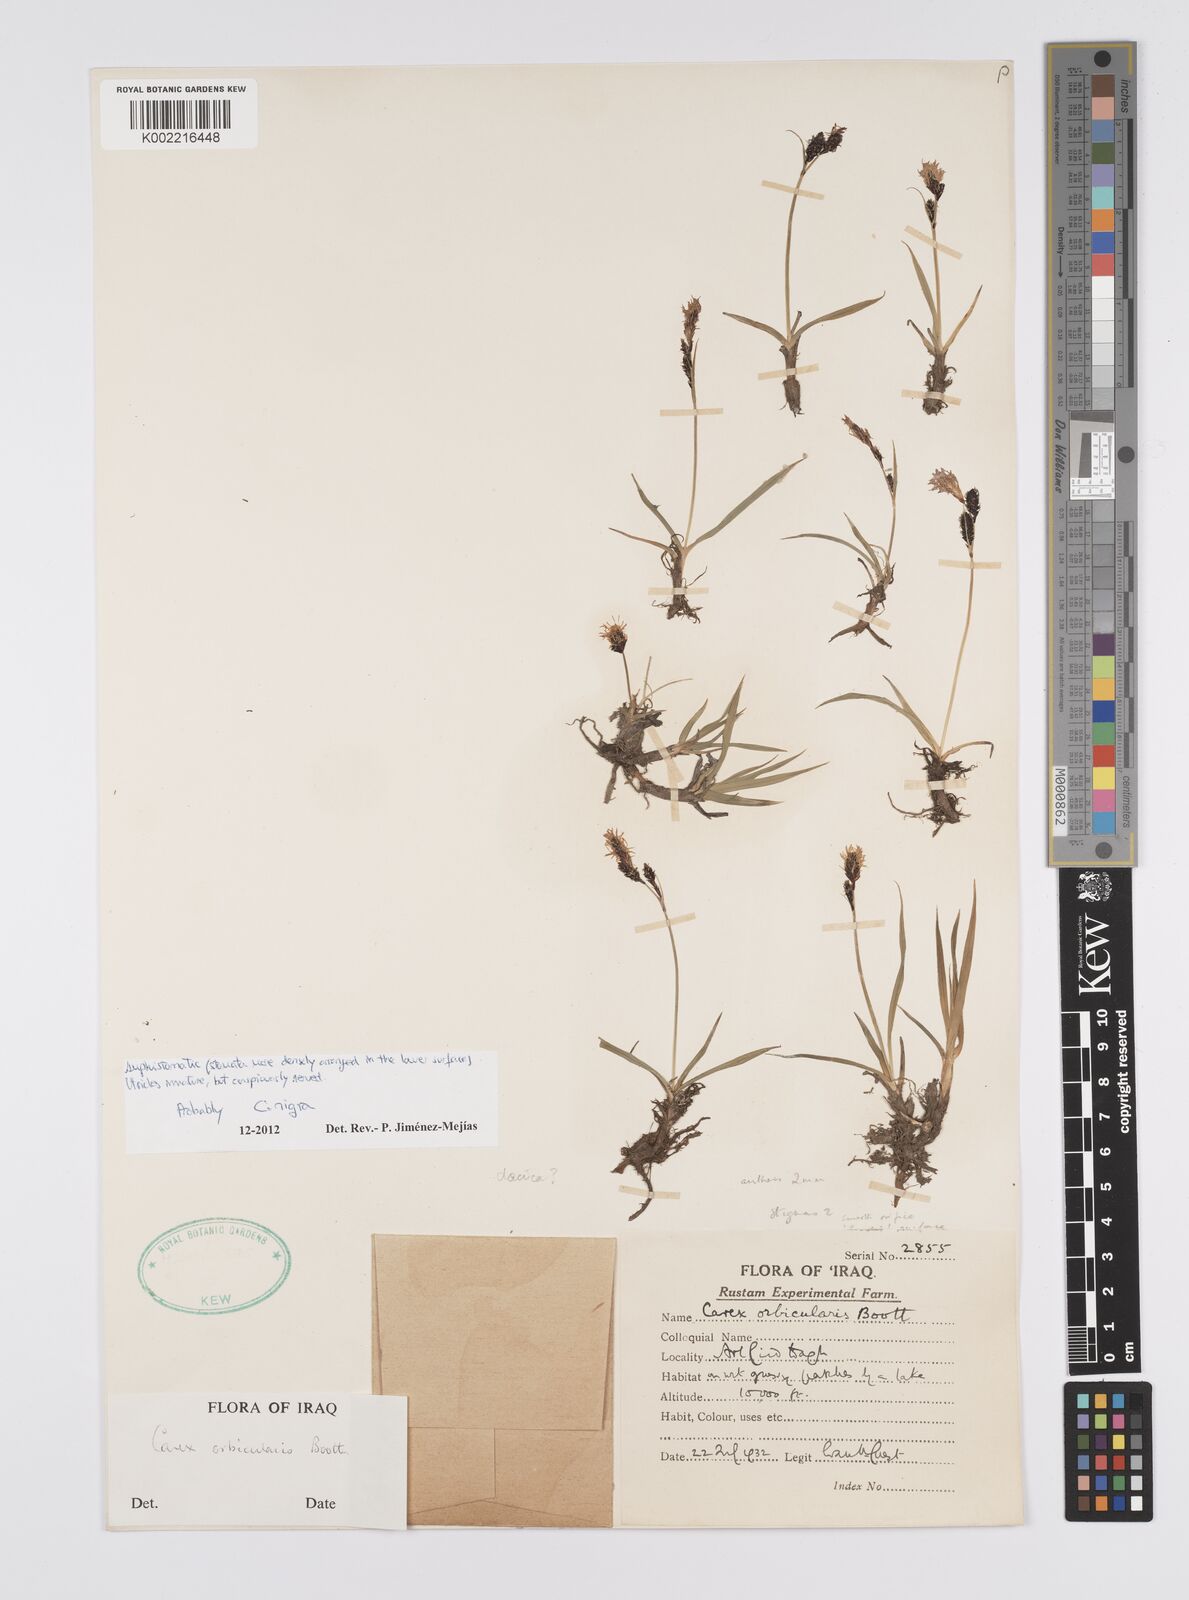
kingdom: Plantae
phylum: Tracheophyta
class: Liliopsida
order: Poales
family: Cyperaceae
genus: Carex
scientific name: Carex nigra
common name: Common sedge
